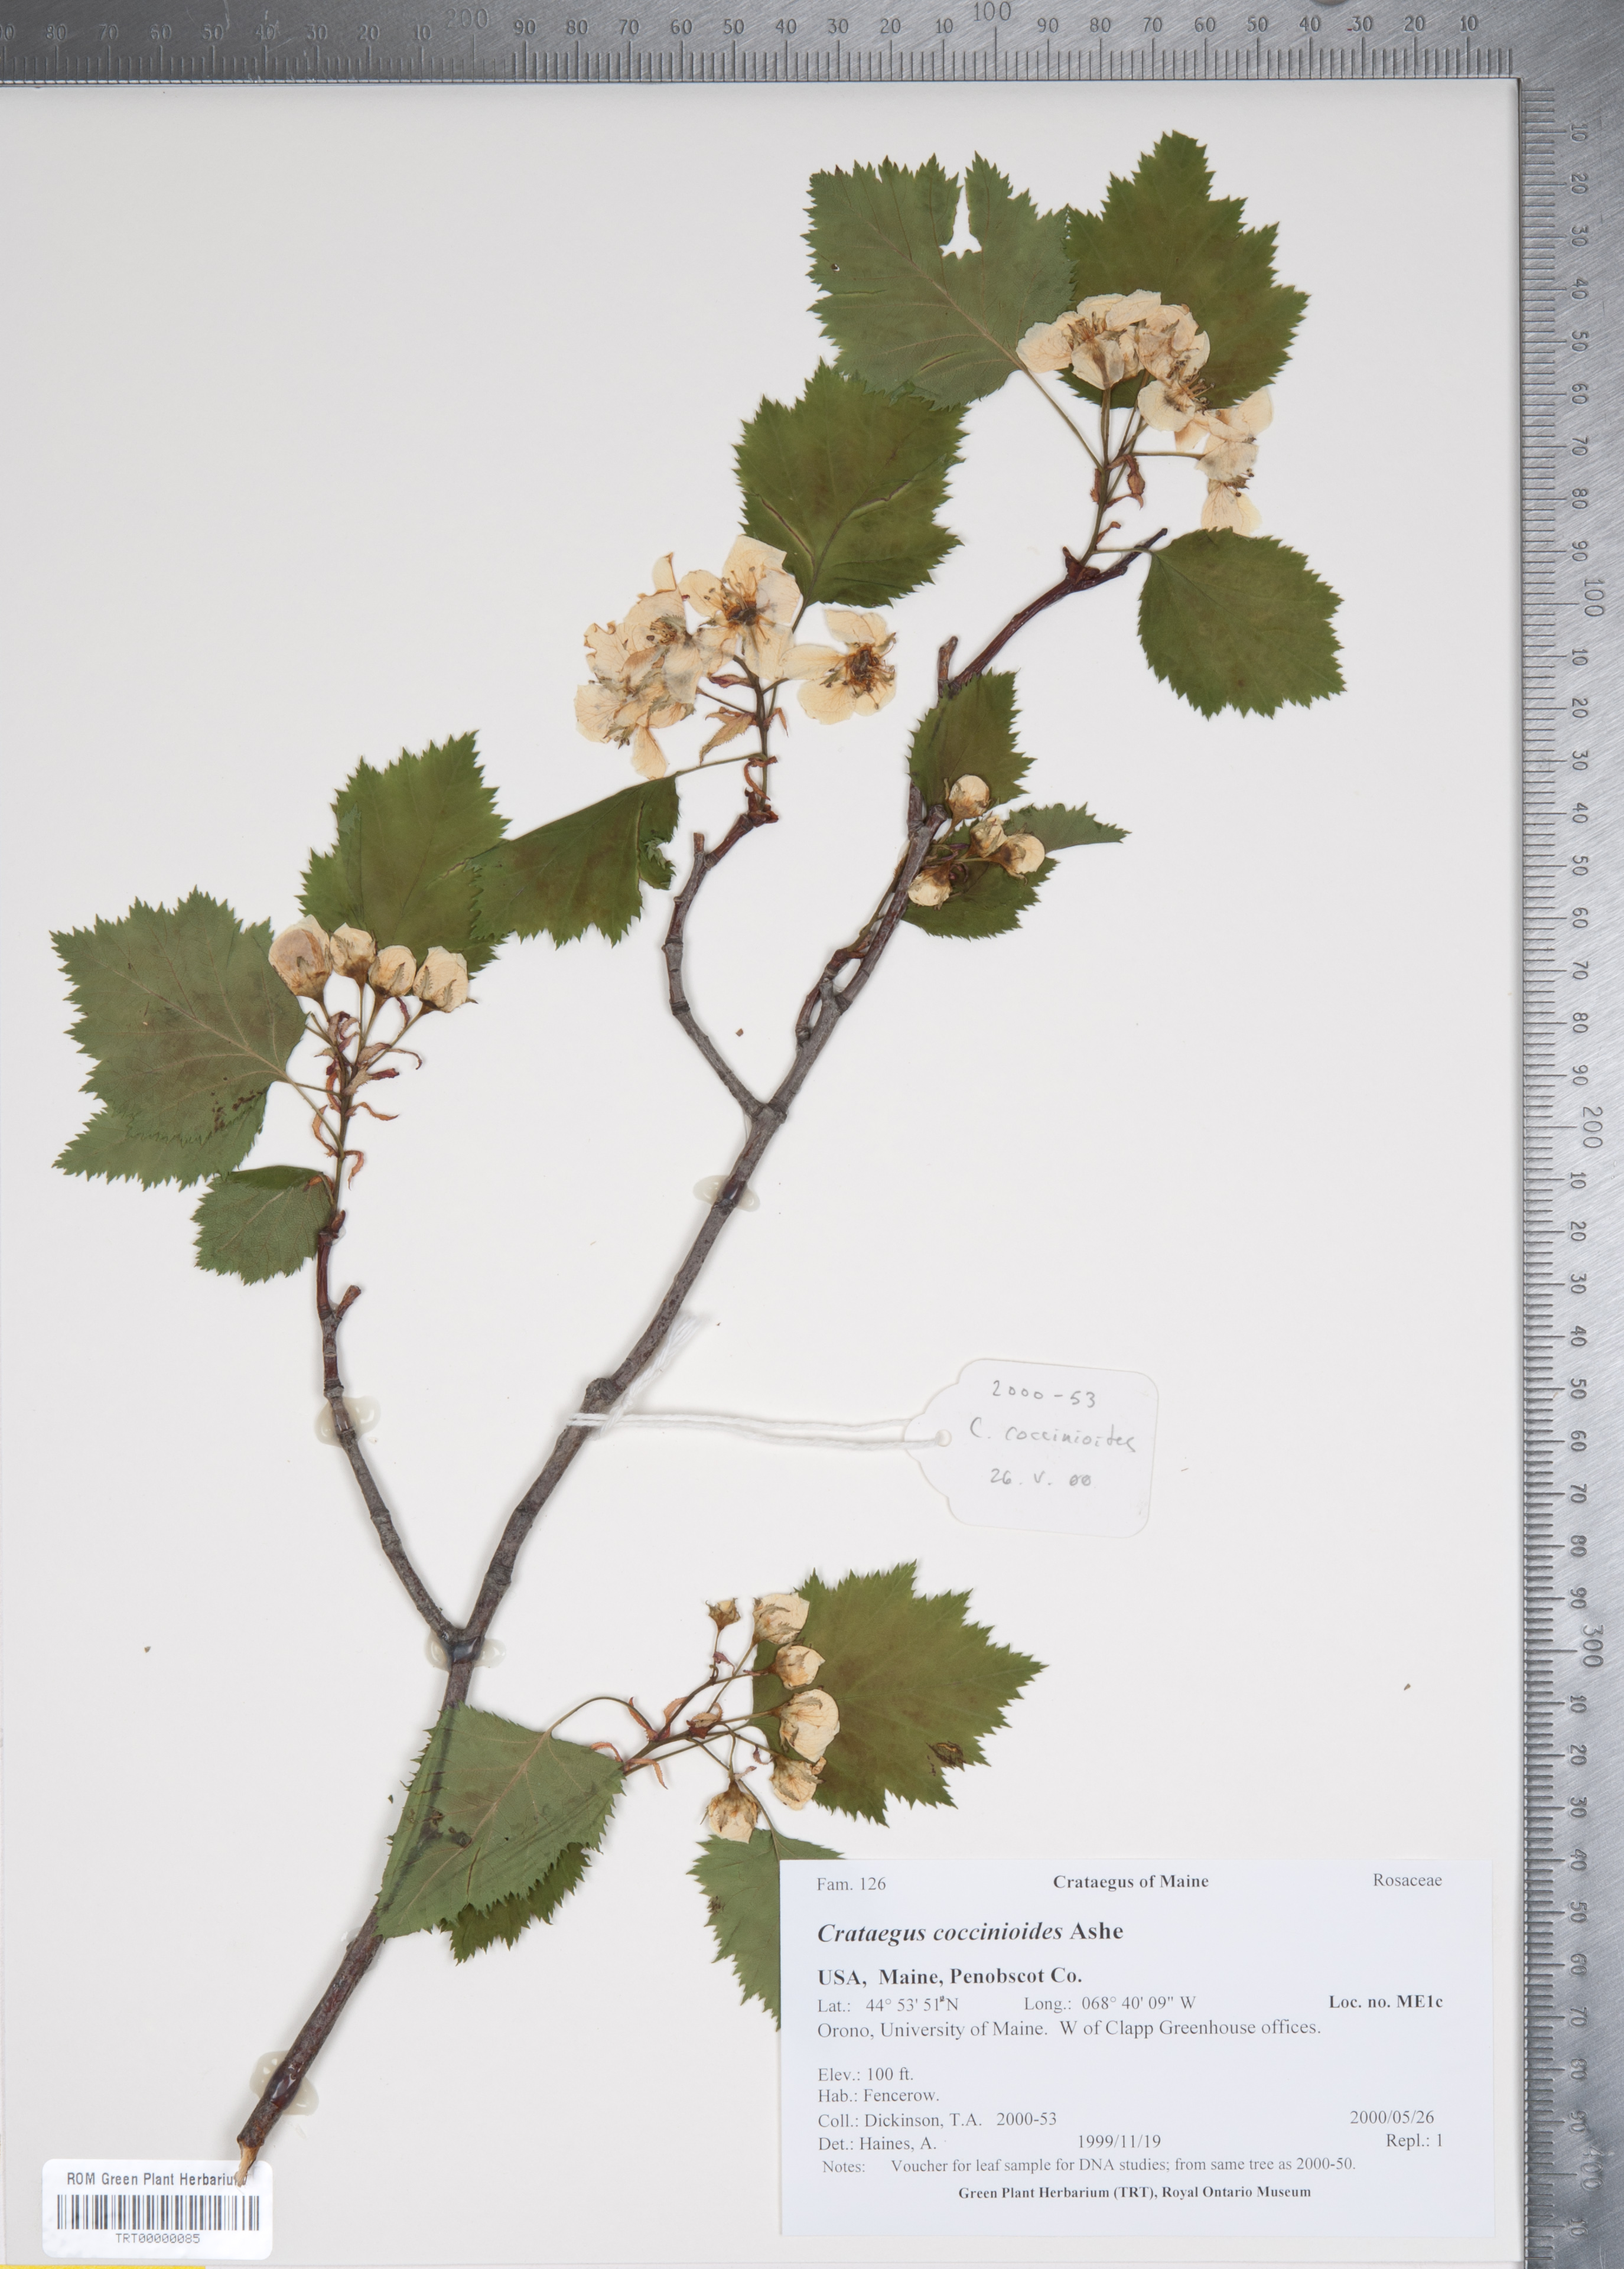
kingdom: Plantae
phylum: Tracheophyta
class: Magnoliopsida
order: Rosales
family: Rosaceae
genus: Crataegus
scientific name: Crataegus coccinioides
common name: Large-flowered cockspurthorn
